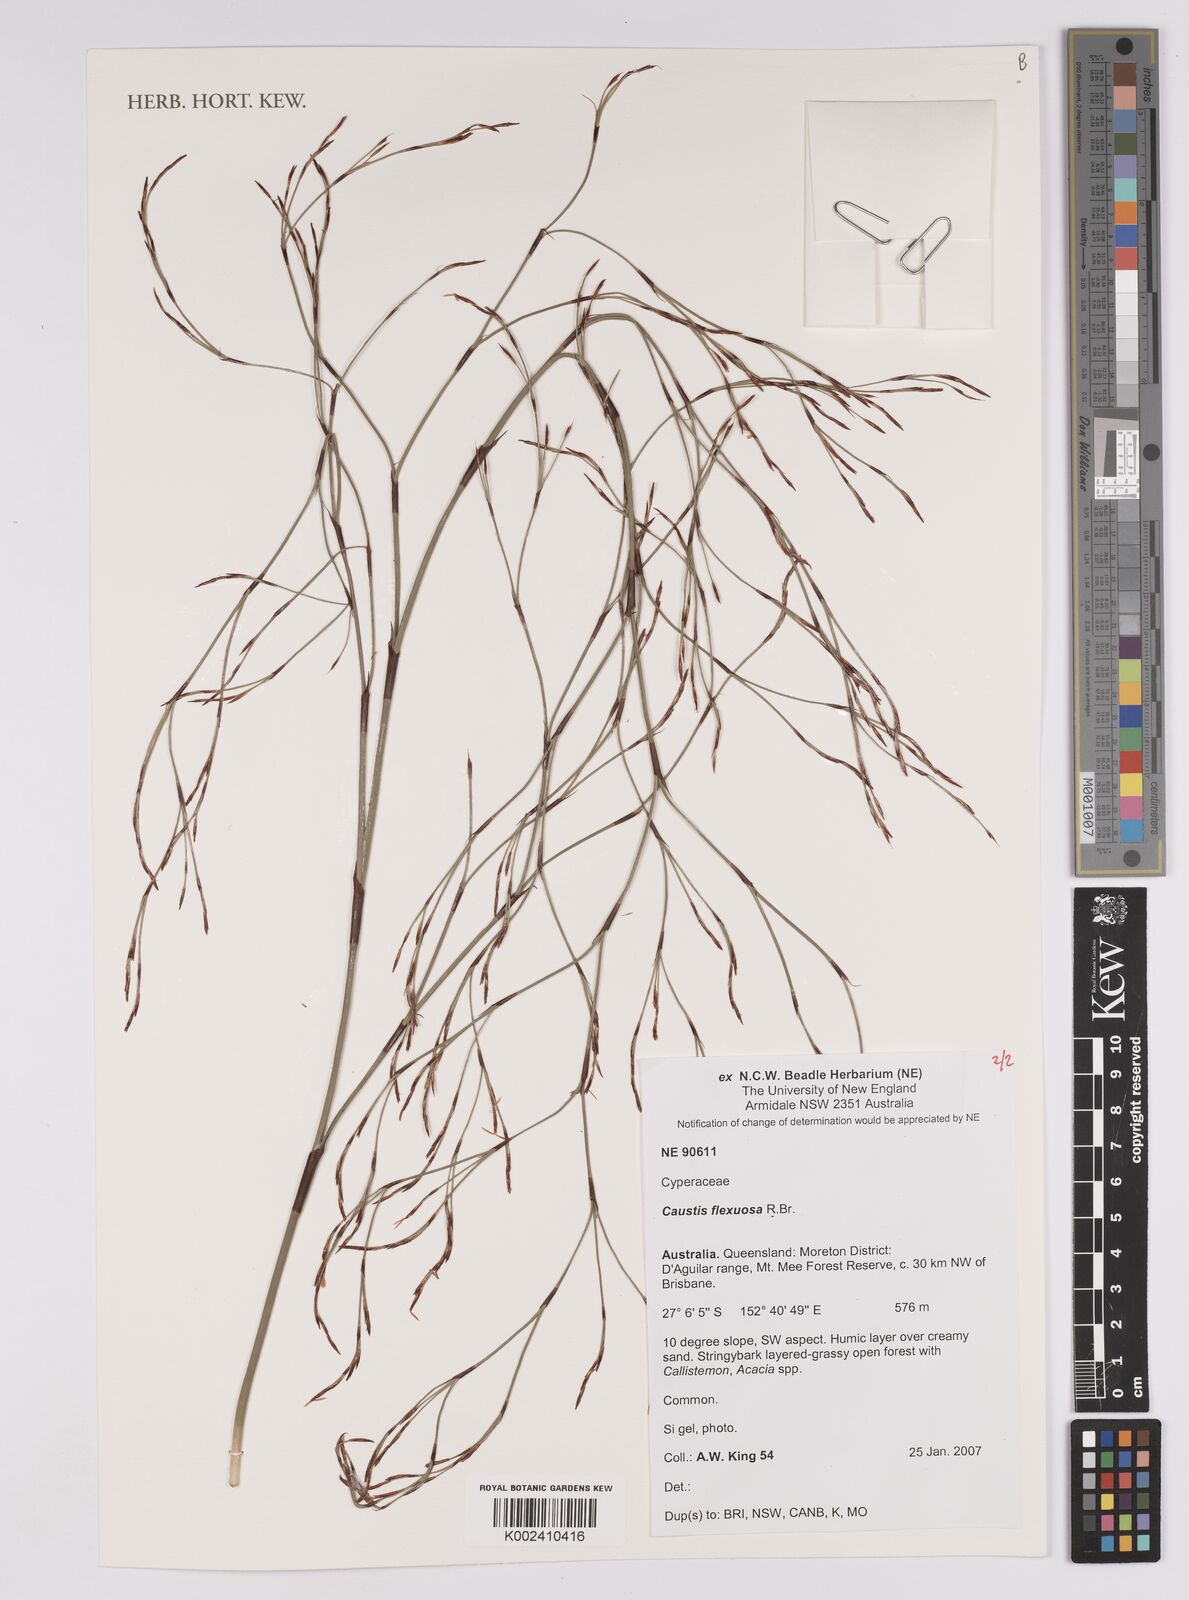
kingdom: Plantae
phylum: Tracheophyta
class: Liliopsida
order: Poales
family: Cyperaceae
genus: Caustis
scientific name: Caustis flexuosa
